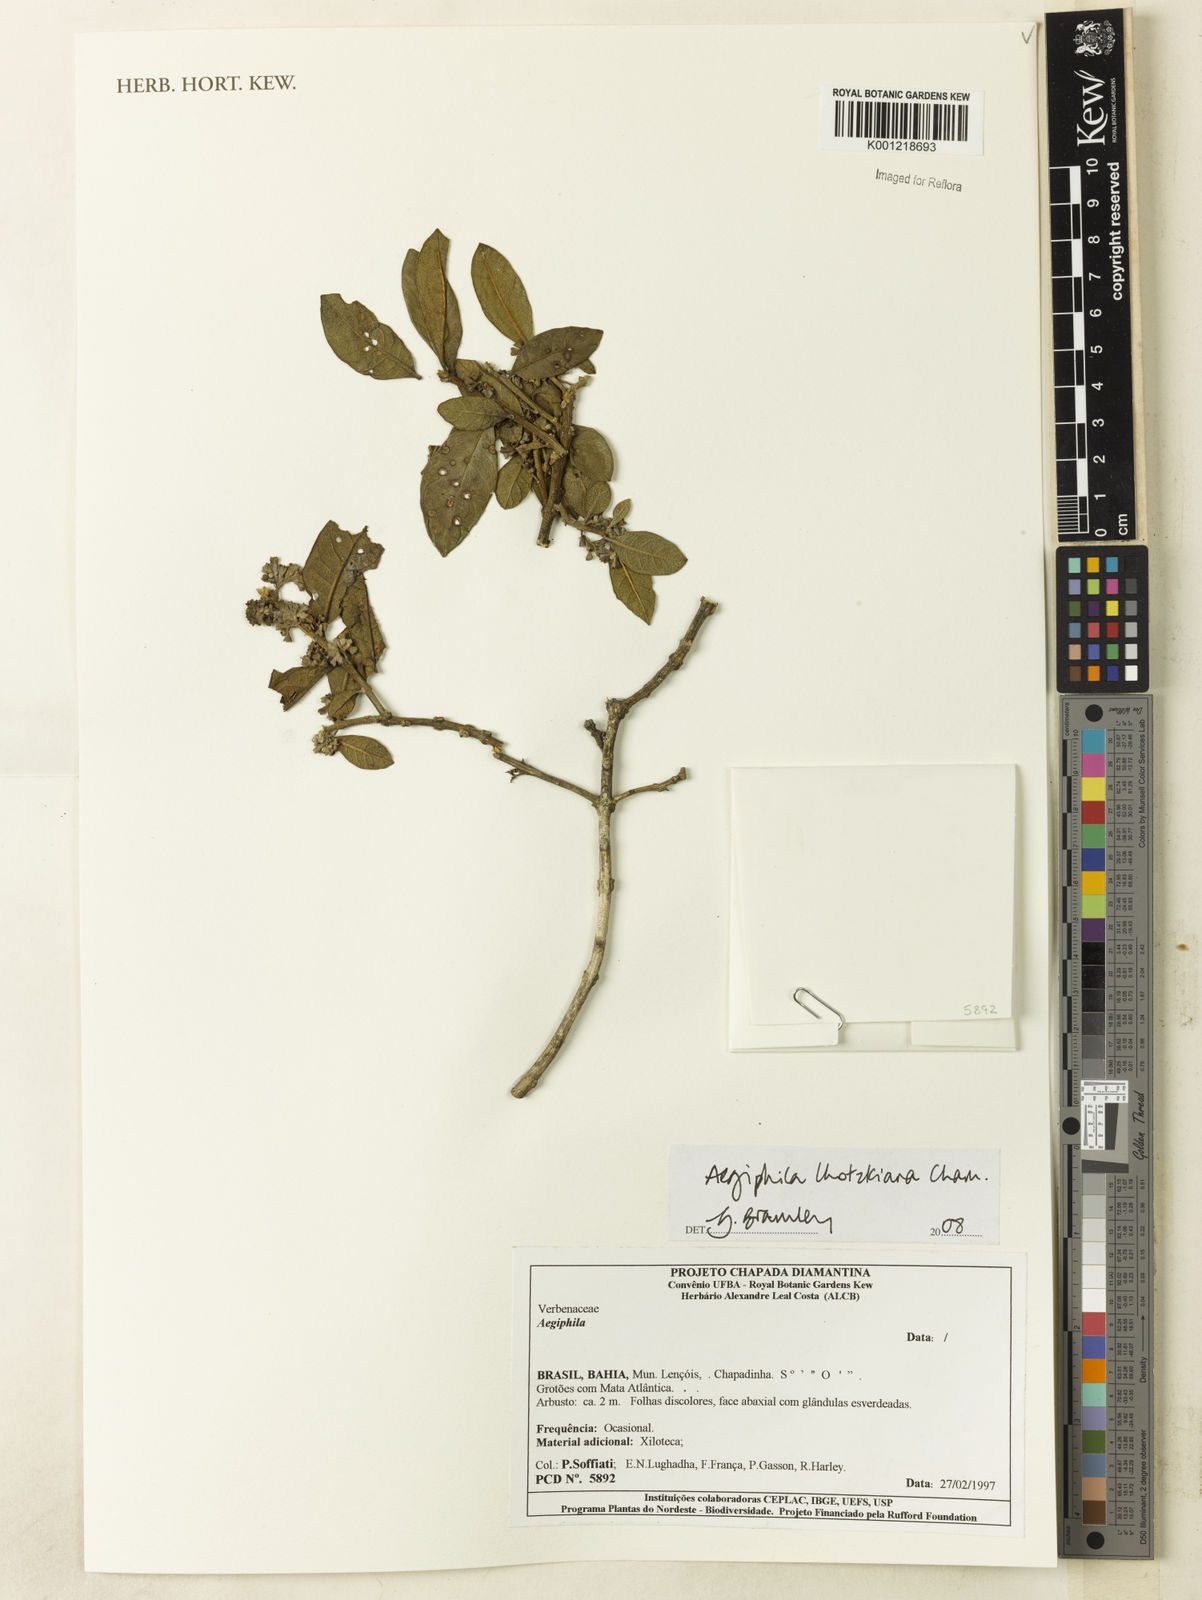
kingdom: Plantae
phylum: Tracheophyta
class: Magnoliopsida
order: Lamiales
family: Lamiaceae
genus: Aegiphila
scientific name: Aegiphila verticillata
